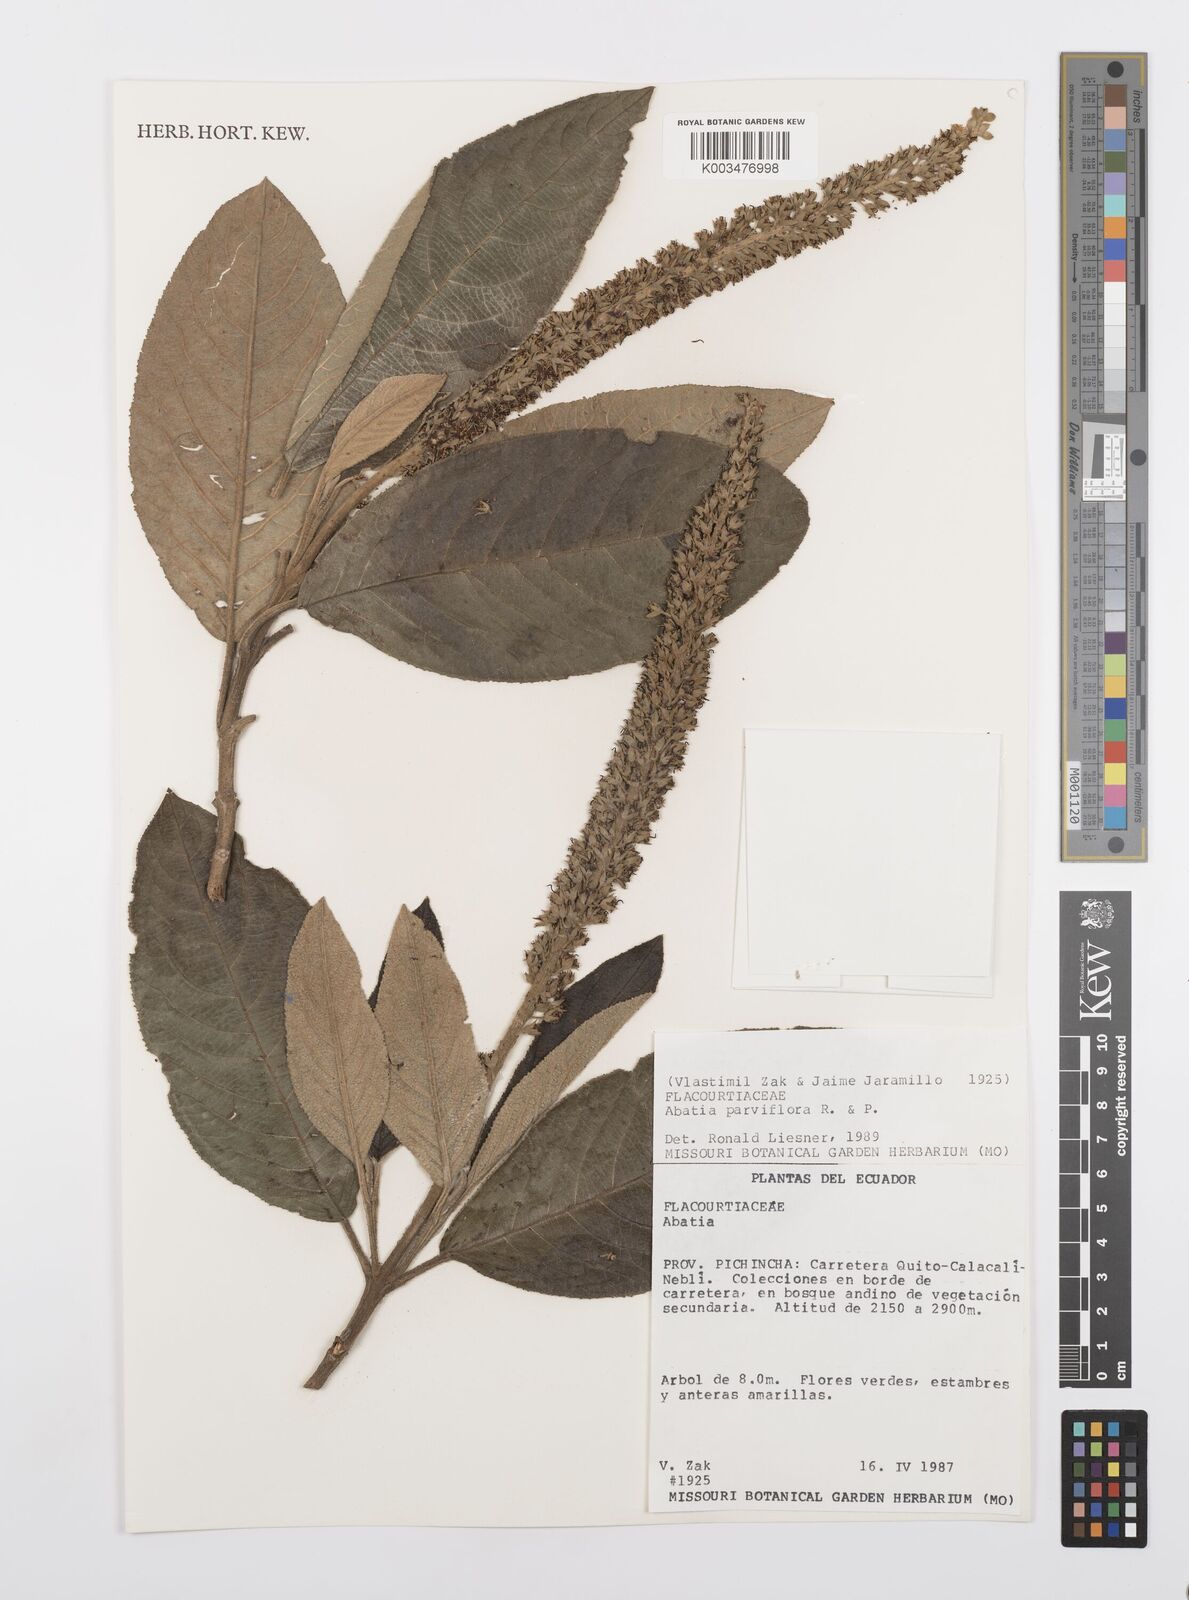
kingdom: Plantae
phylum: Tracheophyta
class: Magnoliopsida
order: Malpighiales
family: Salicaceae
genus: Abatia
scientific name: Abatia parviflora
